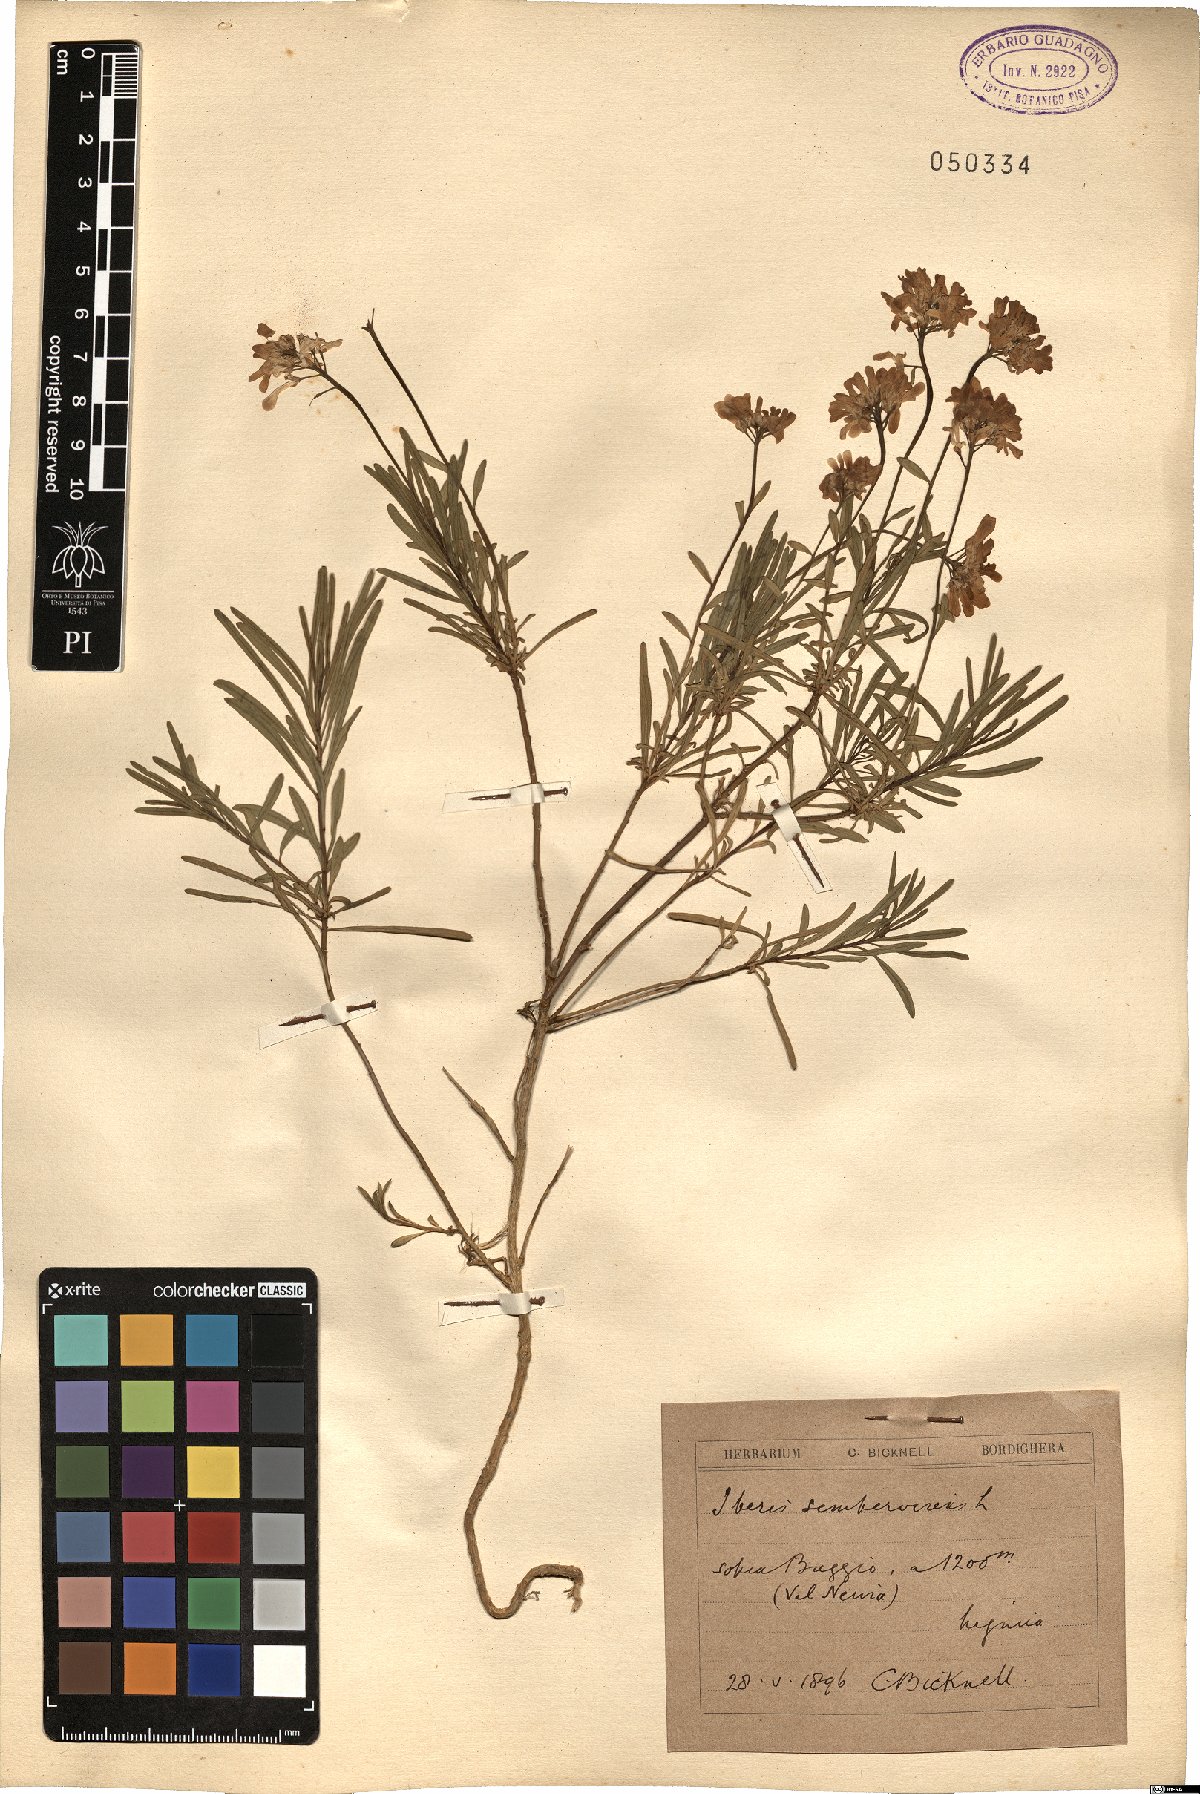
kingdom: Plantae
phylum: Tracheophyta
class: Magnoliopsida
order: Brassicales
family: Brassicaceae
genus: Iberis
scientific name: Iberis sempervirens
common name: Evergreen candytuft
